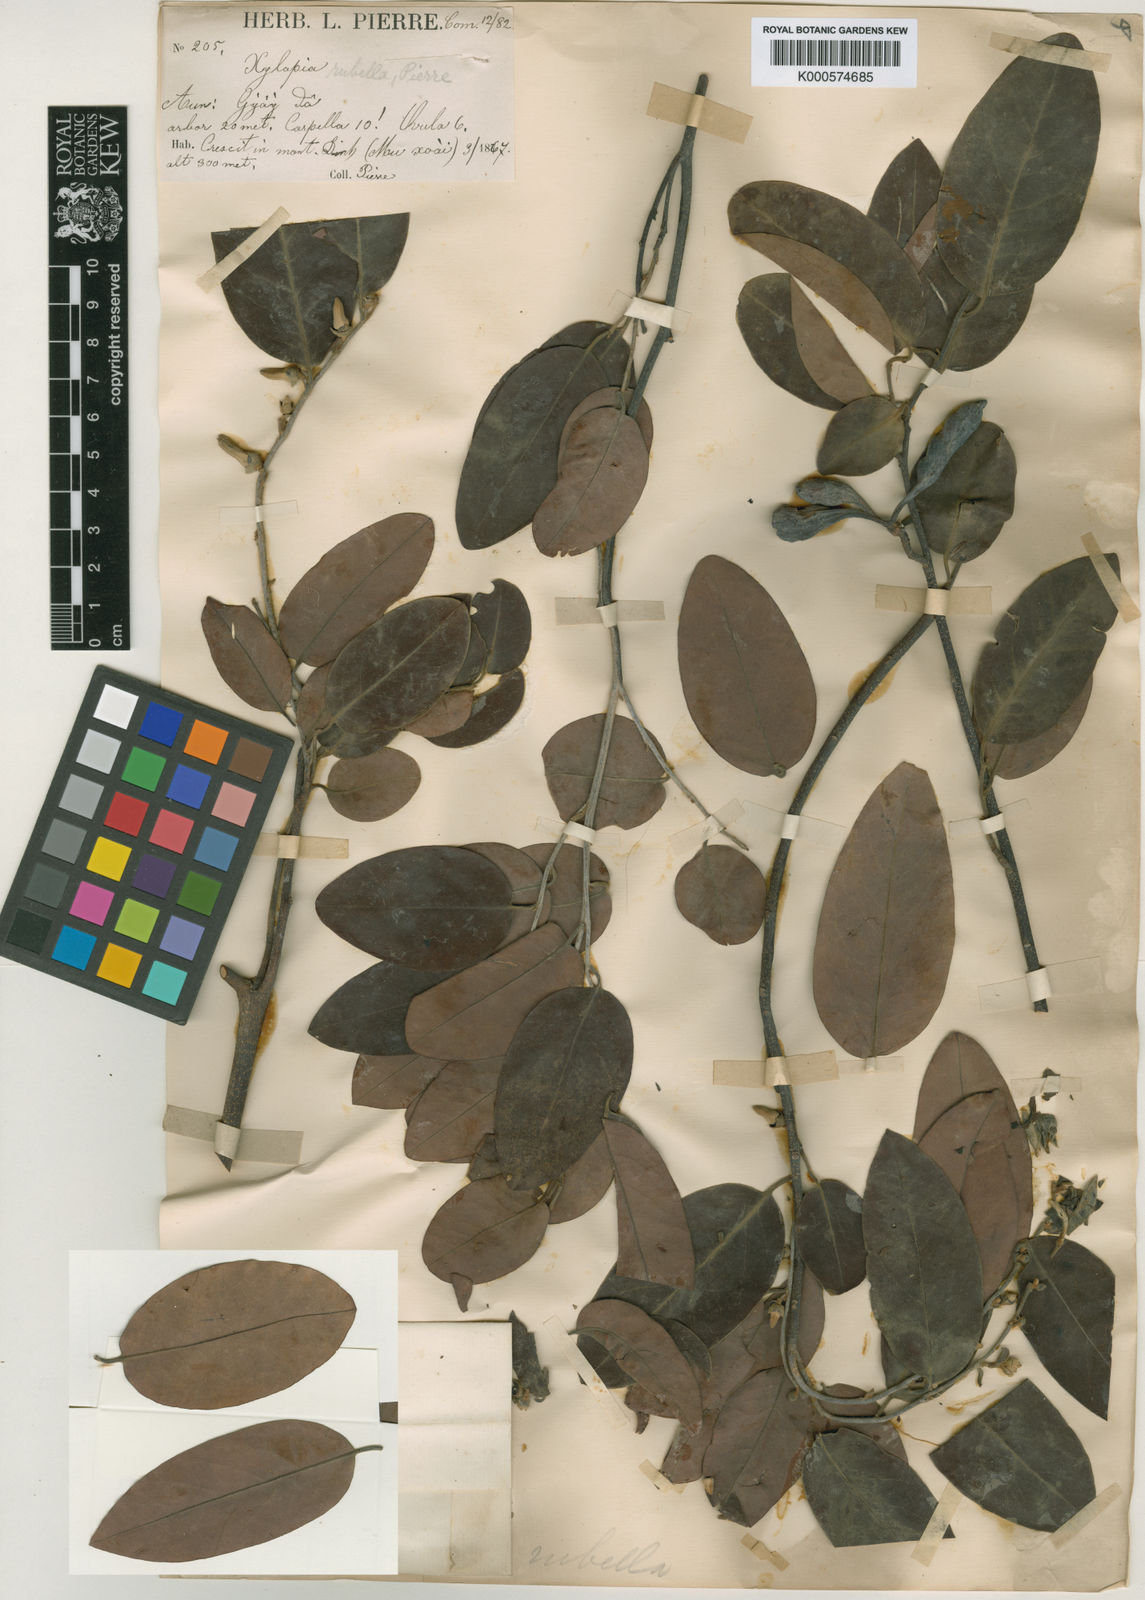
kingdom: Plantae
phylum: Tracheophyta
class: Magnoliopsida
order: Magnoliales
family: Annonaceae
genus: Xylopia
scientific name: Xylopia
